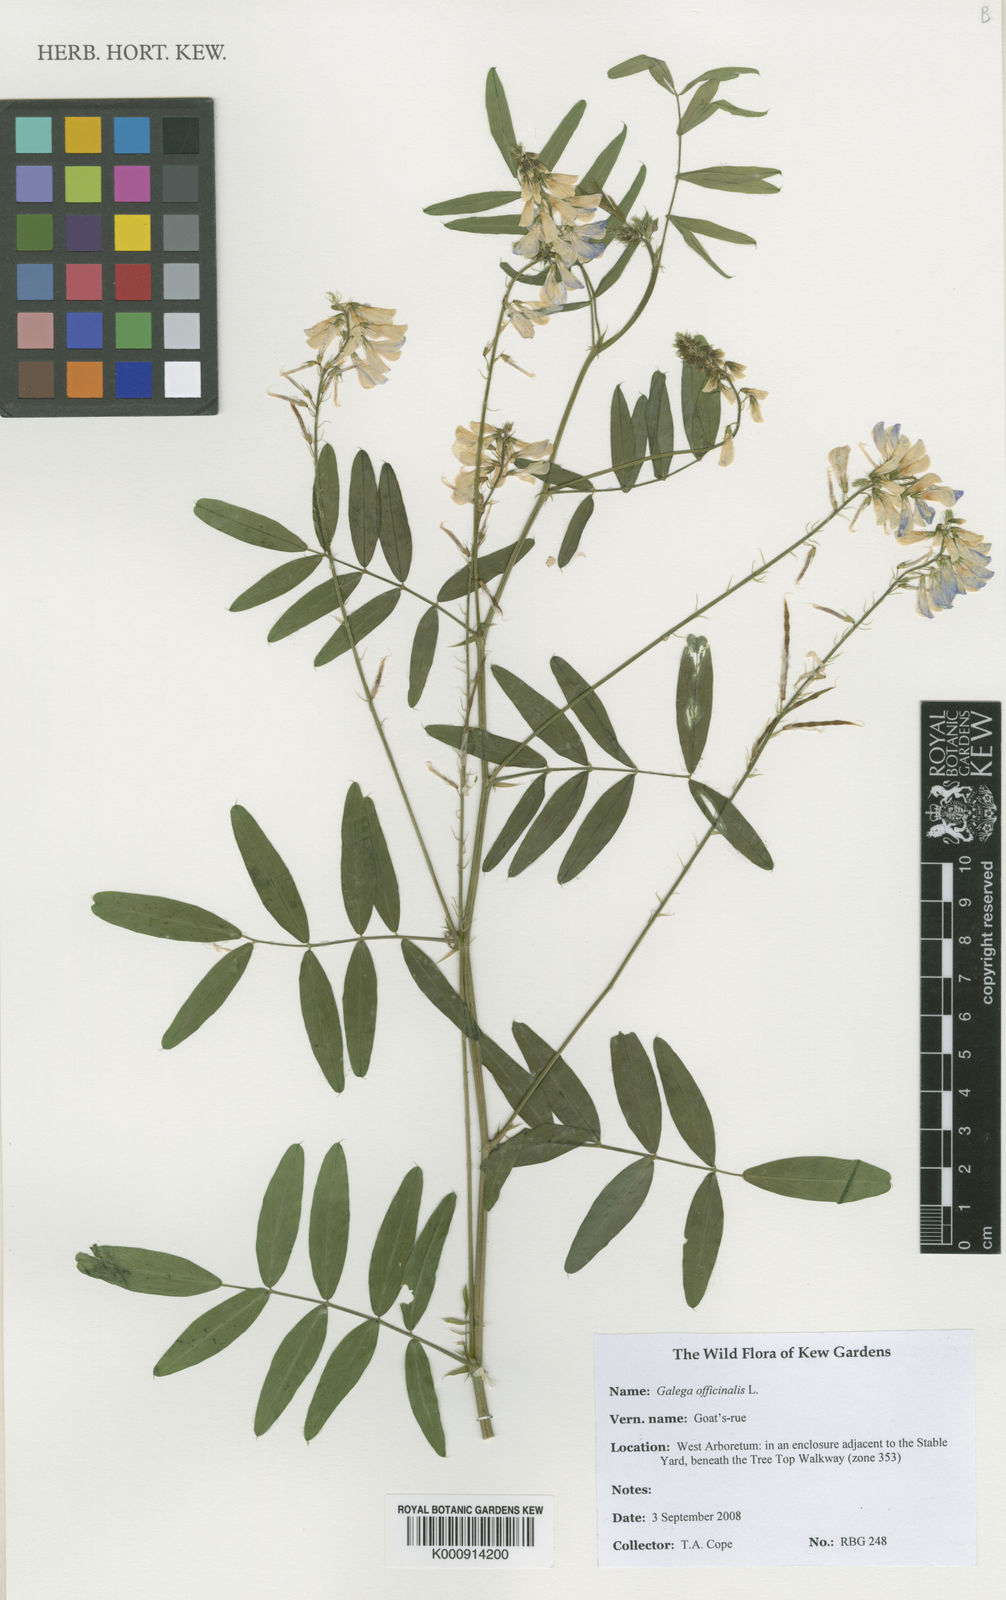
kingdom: Plantae
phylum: Tracheophyta
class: Magnoliopsida
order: Fabales
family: Fabaceae
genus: Galega
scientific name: Galega officinalis
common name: Goat's-rue
